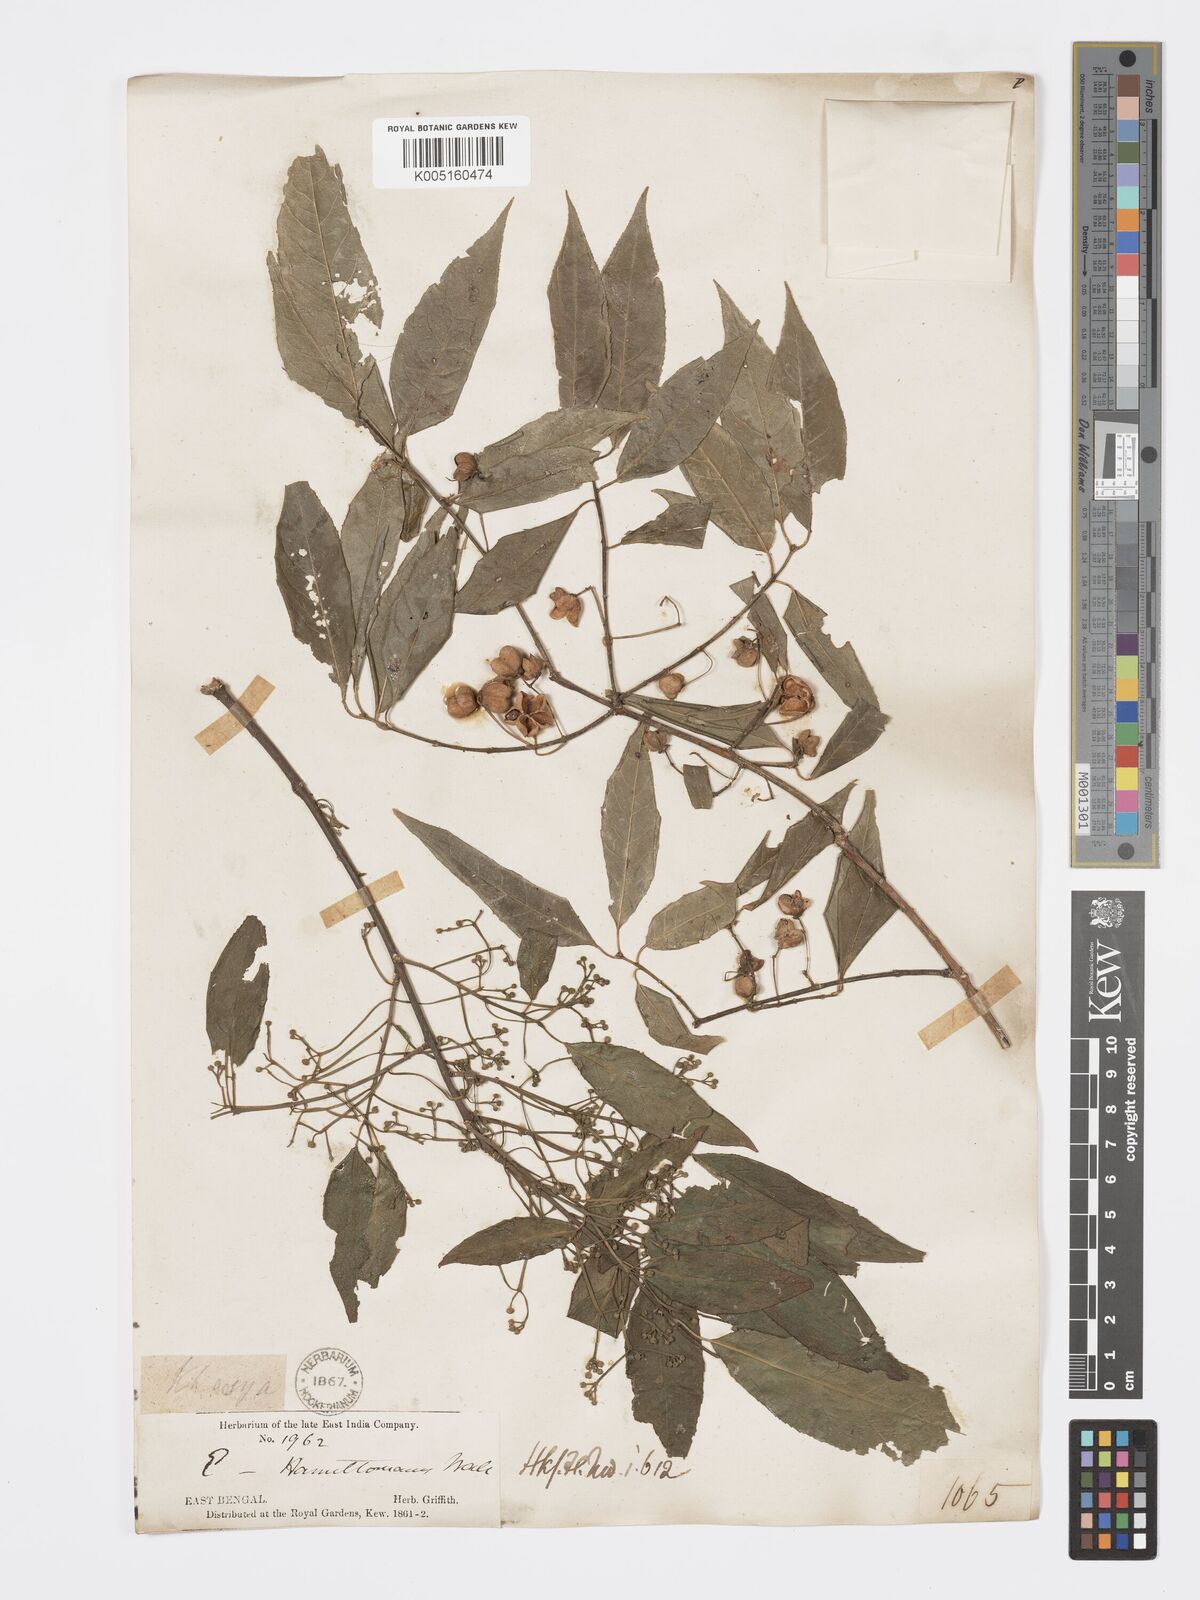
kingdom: Plantae
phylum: Tracheophyta
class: Magnoliopsida
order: Celastrales
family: Celastraceae
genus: Euonymus
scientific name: Euonymus
